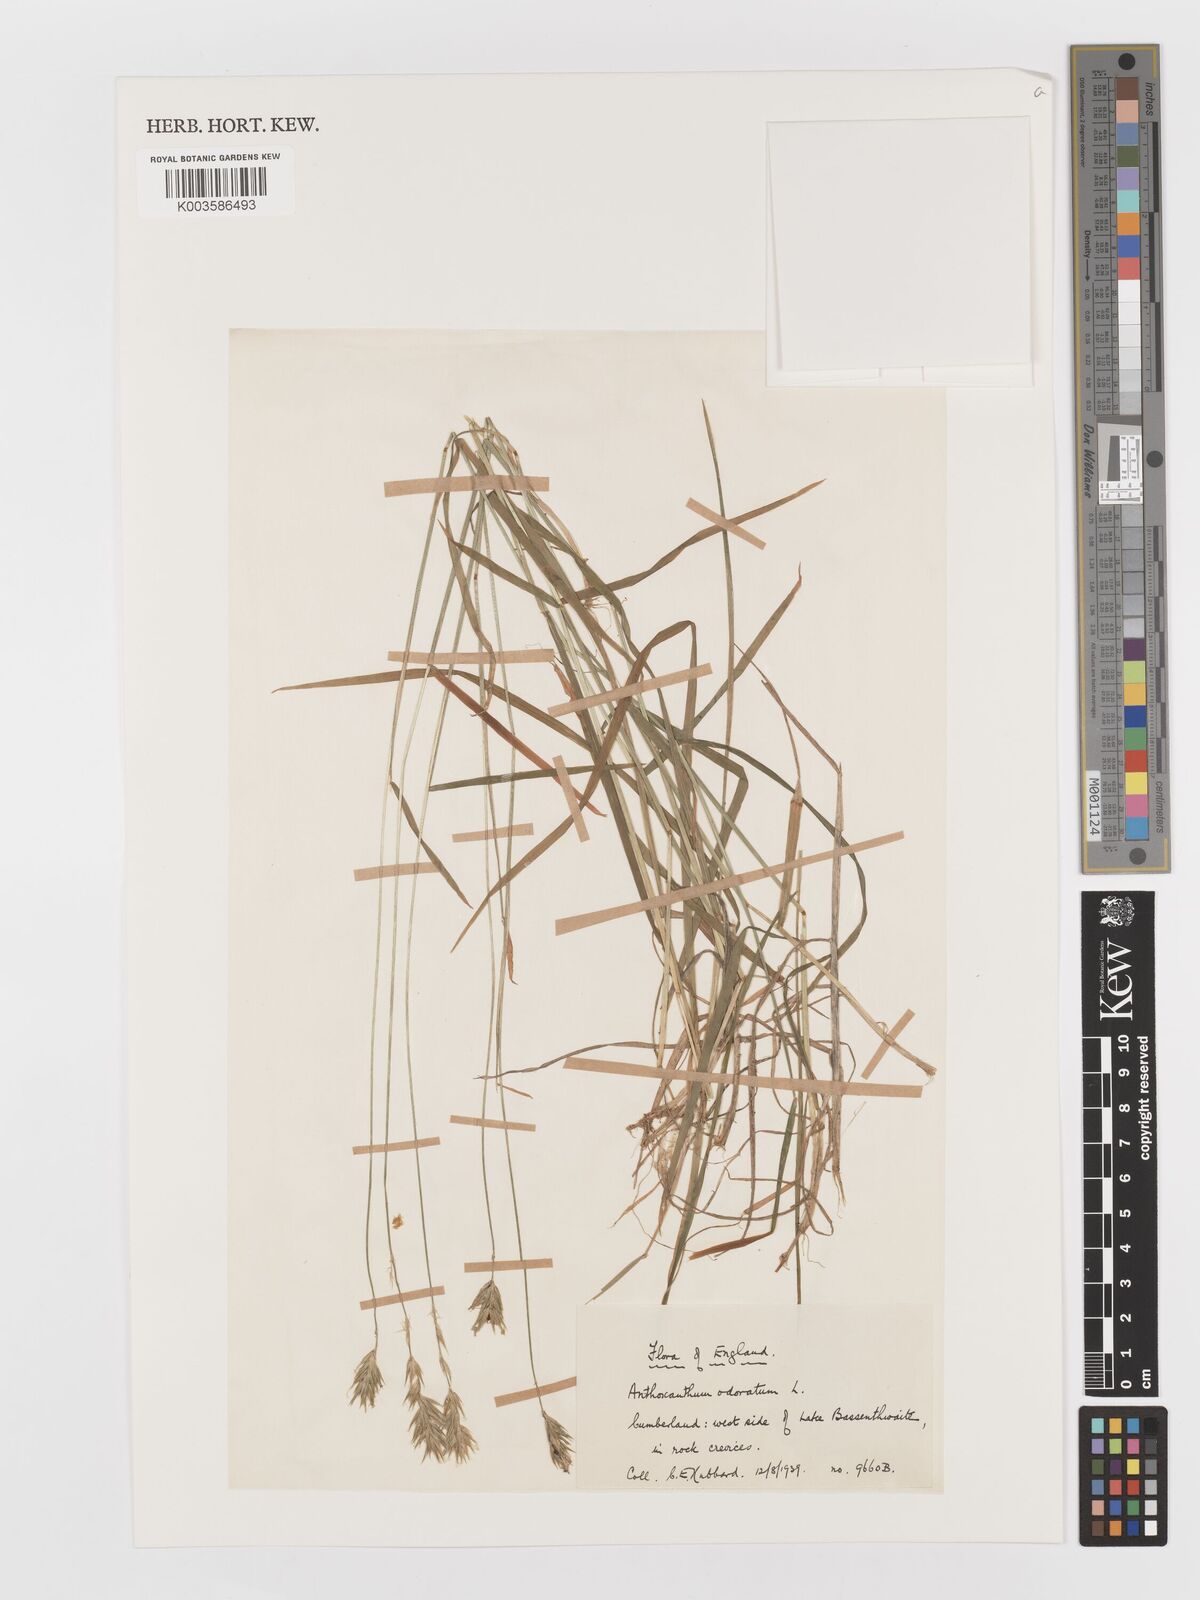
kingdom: Plantae
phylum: Tracheophyta
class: Liliopsida
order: Poales
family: Poaceae
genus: Anthoxanthum
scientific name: Anthoxanthum odoratum
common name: Sweet vernalgrass
